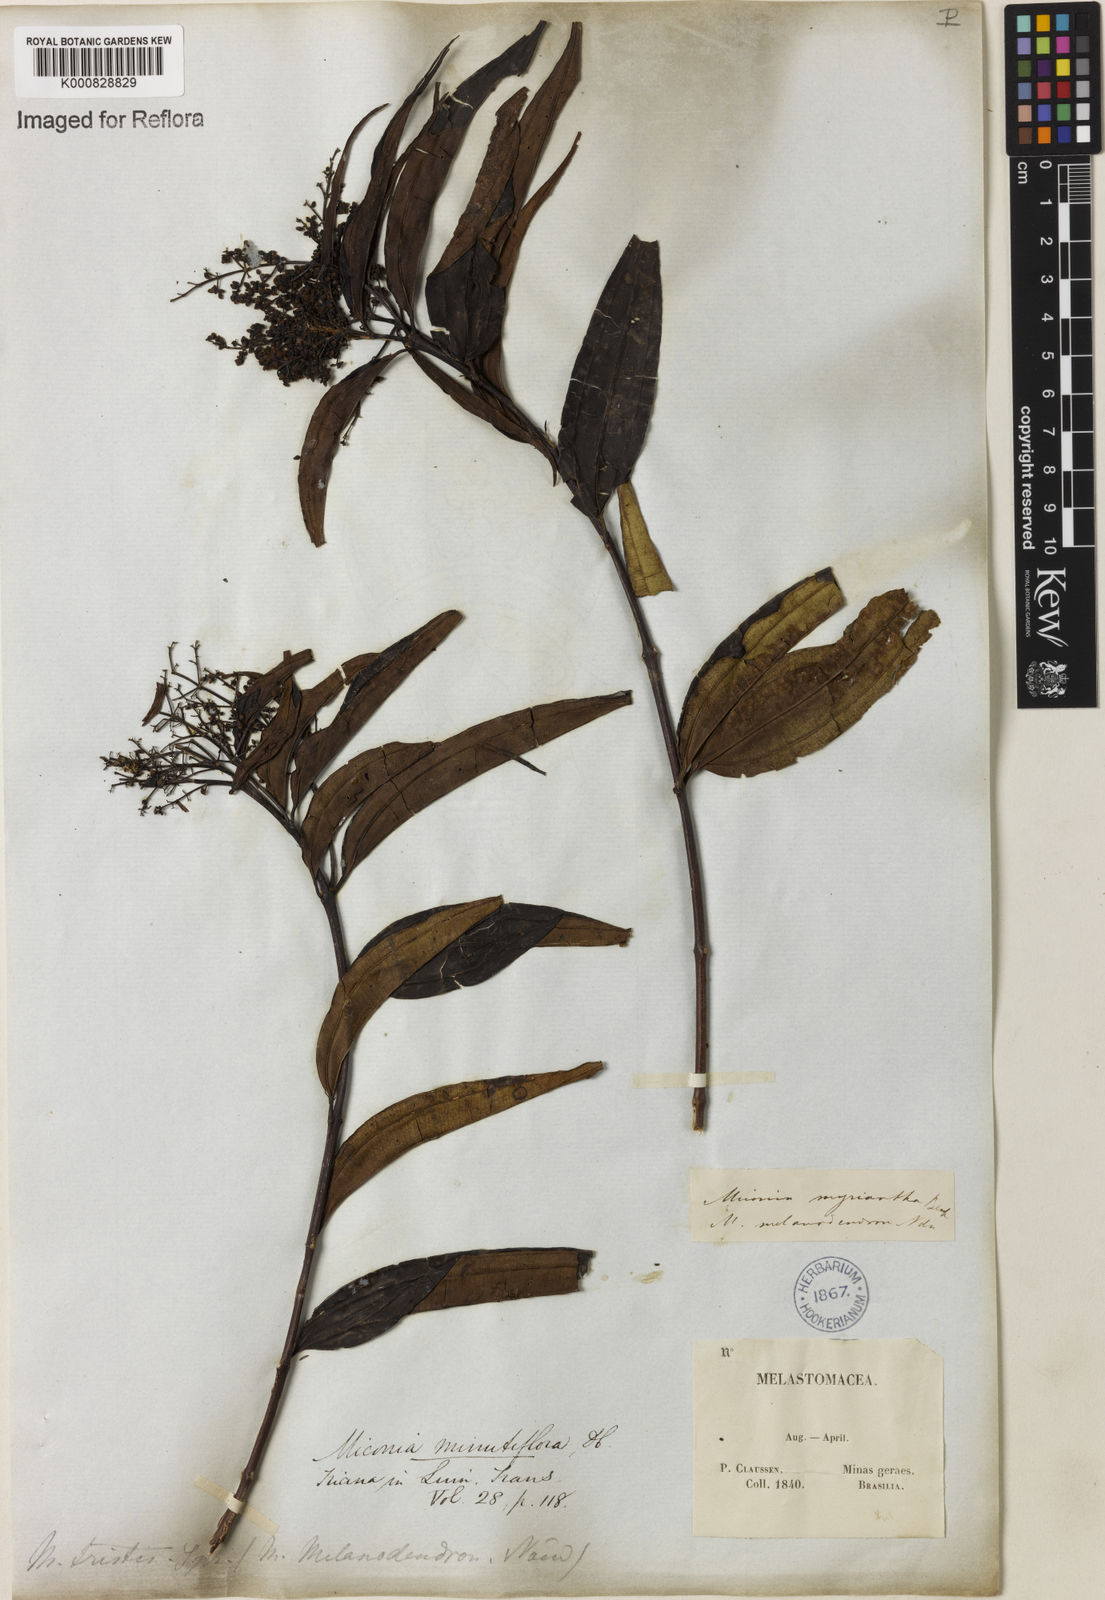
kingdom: Plantae
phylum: Tracheophyta
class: Magnoliopsida
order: Myrtales
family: Melastomataceae
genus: Miconia
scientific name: Miconia minutiflora
